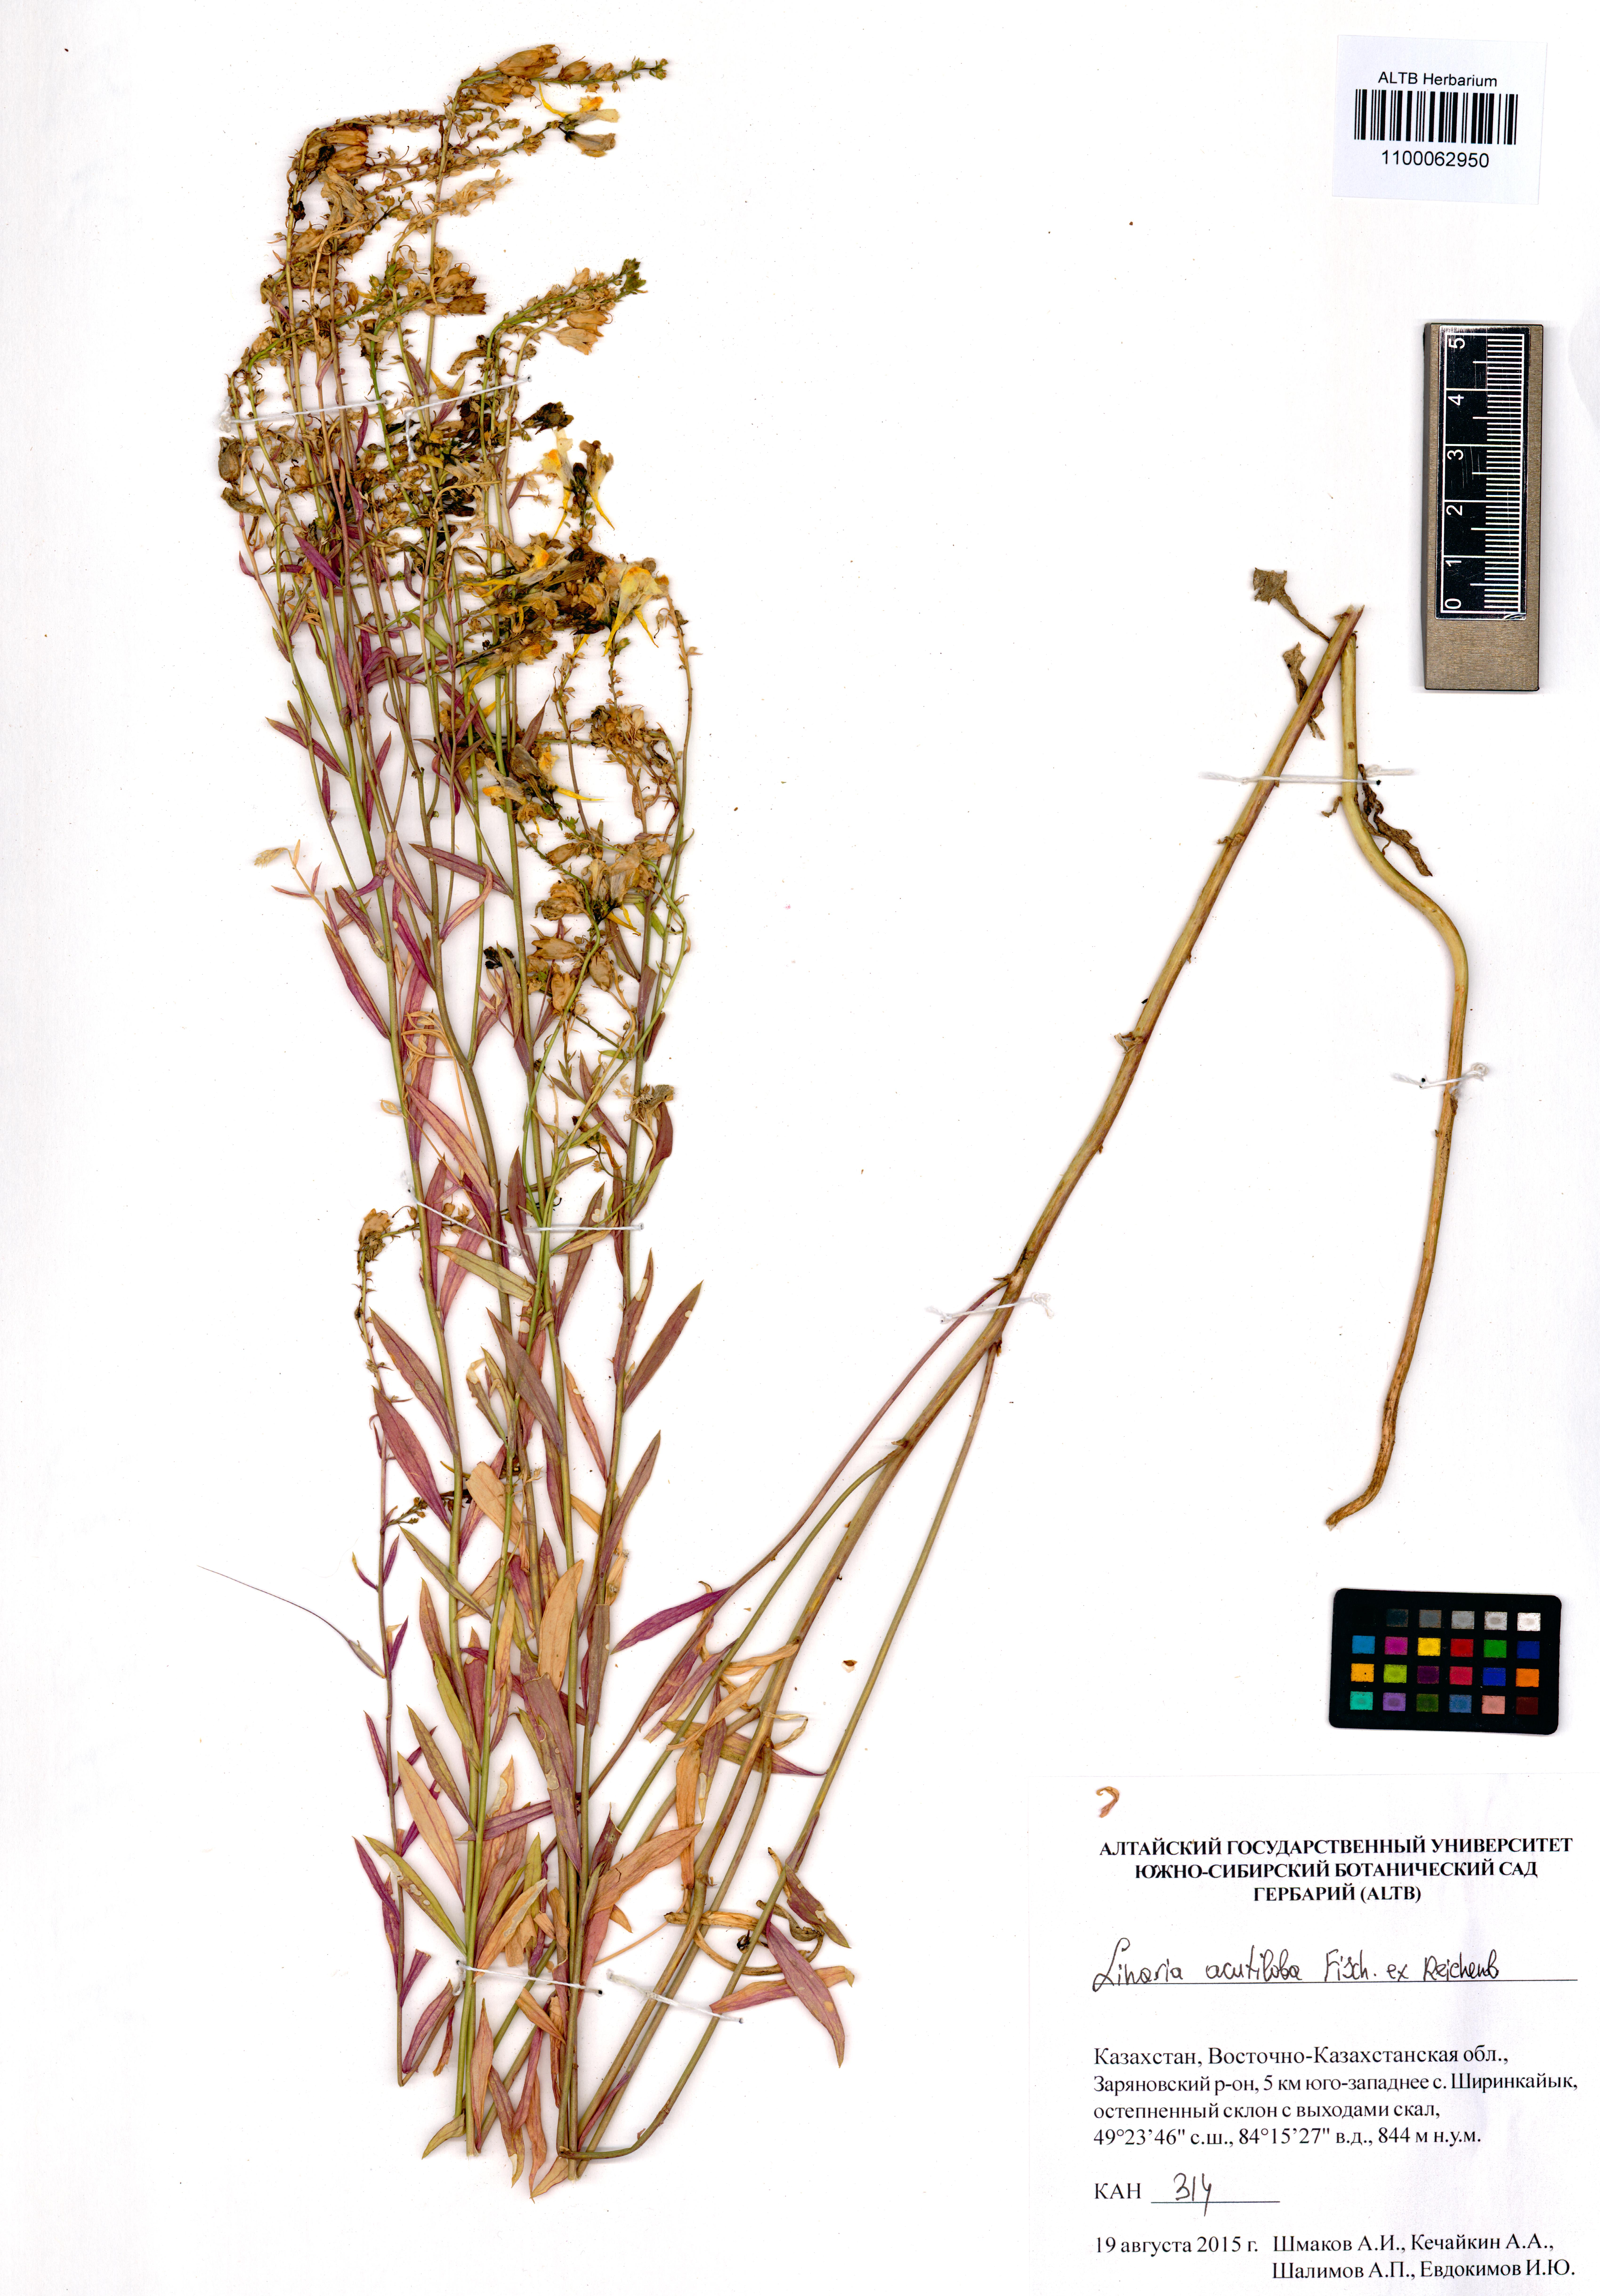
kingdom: Plantae
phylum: Tracheophyta
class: Magnoliopsida
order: Lamiales
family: Plantaginaceae
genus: Linaria
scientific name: Linaria acutiloba
